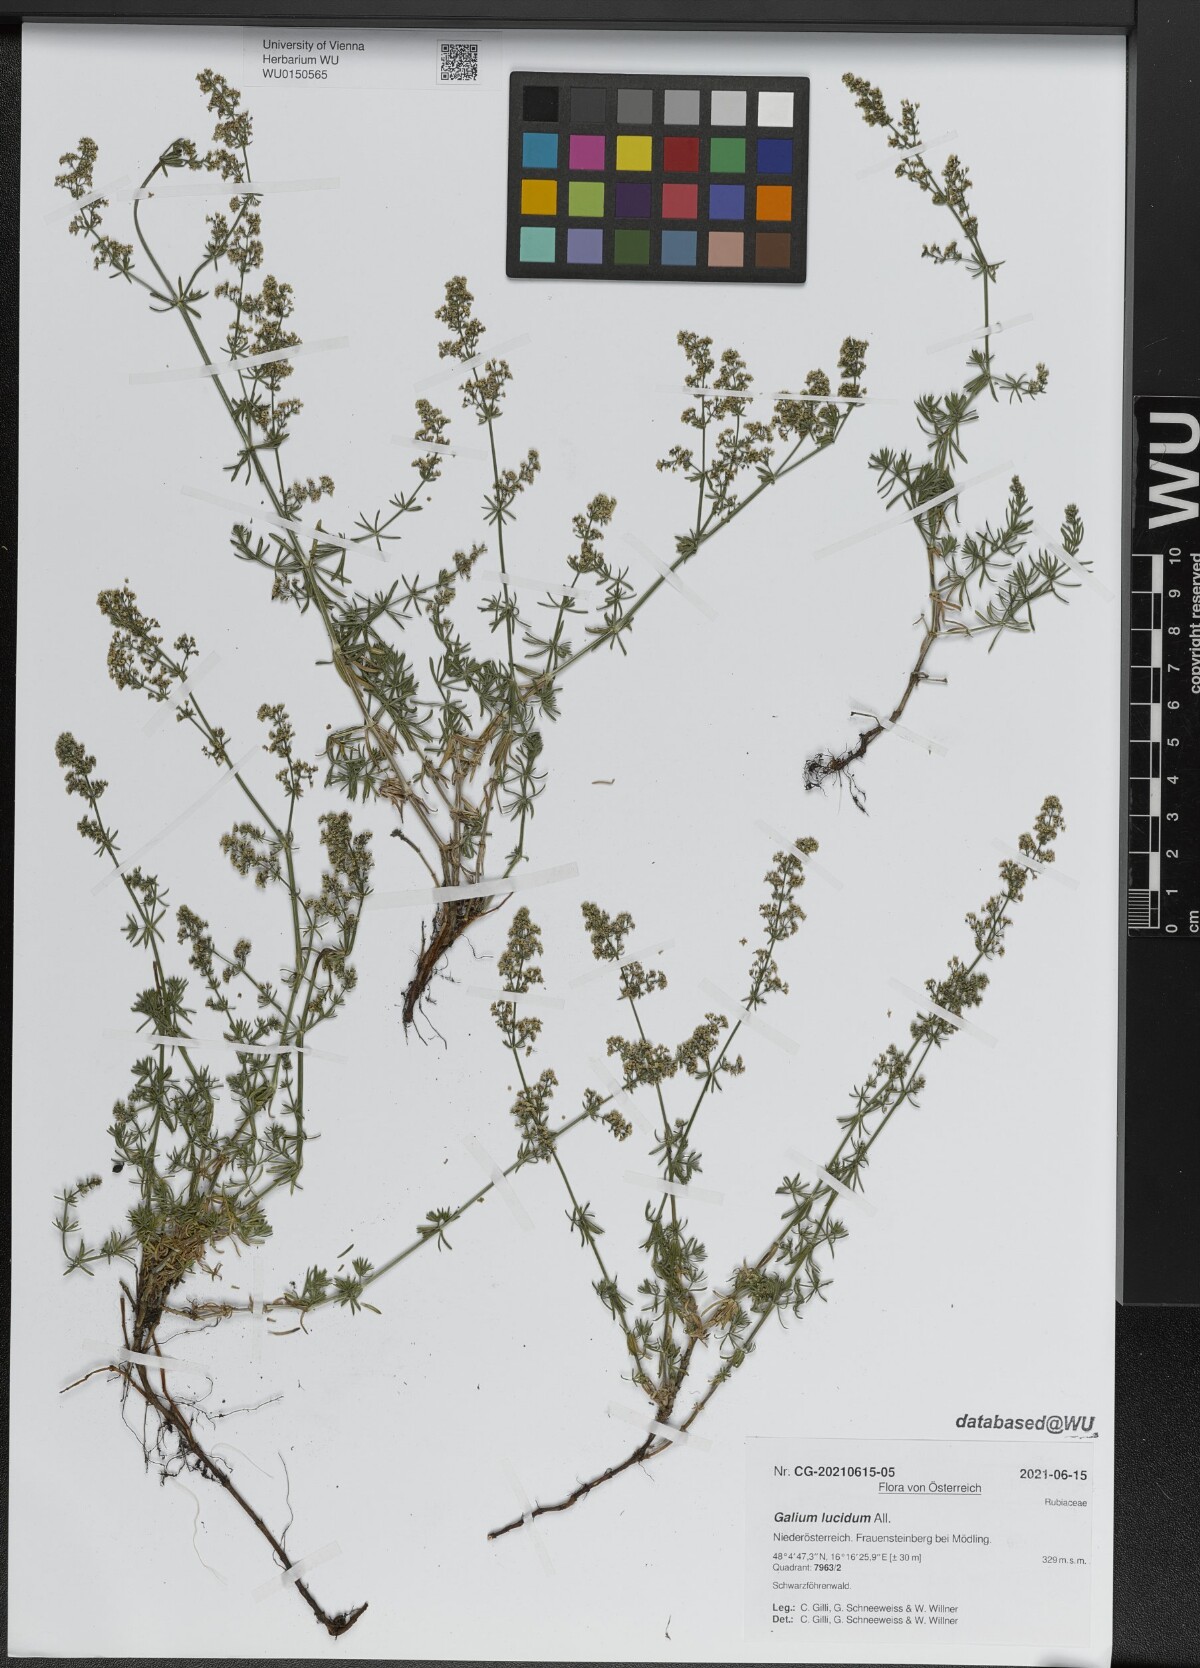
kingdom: Plantae
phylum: Tracheophyta
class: Magnoliopsida
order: Gentianales
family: Rubiaceae
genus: Galium
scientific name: Galium lucidum
